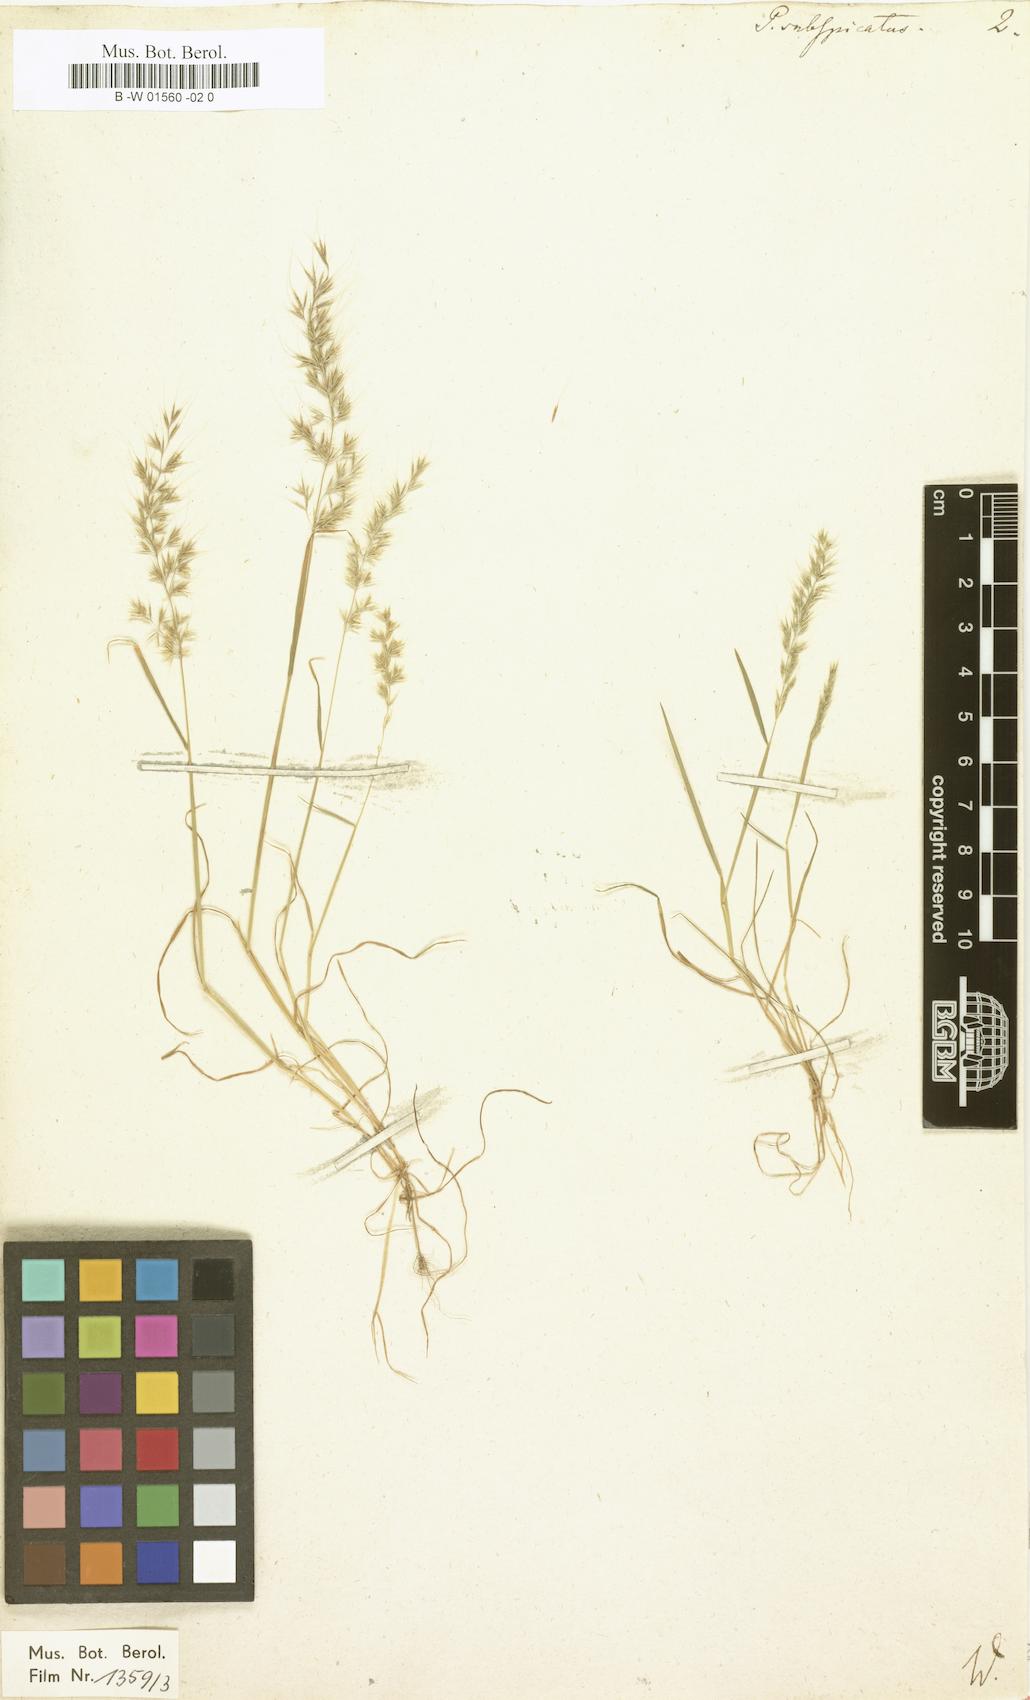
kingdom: Plantae
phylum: Tracheophyta
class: Liliopsida
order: Poales
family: Poaceae
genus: Agrostis
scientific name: Agrostis subspicata
